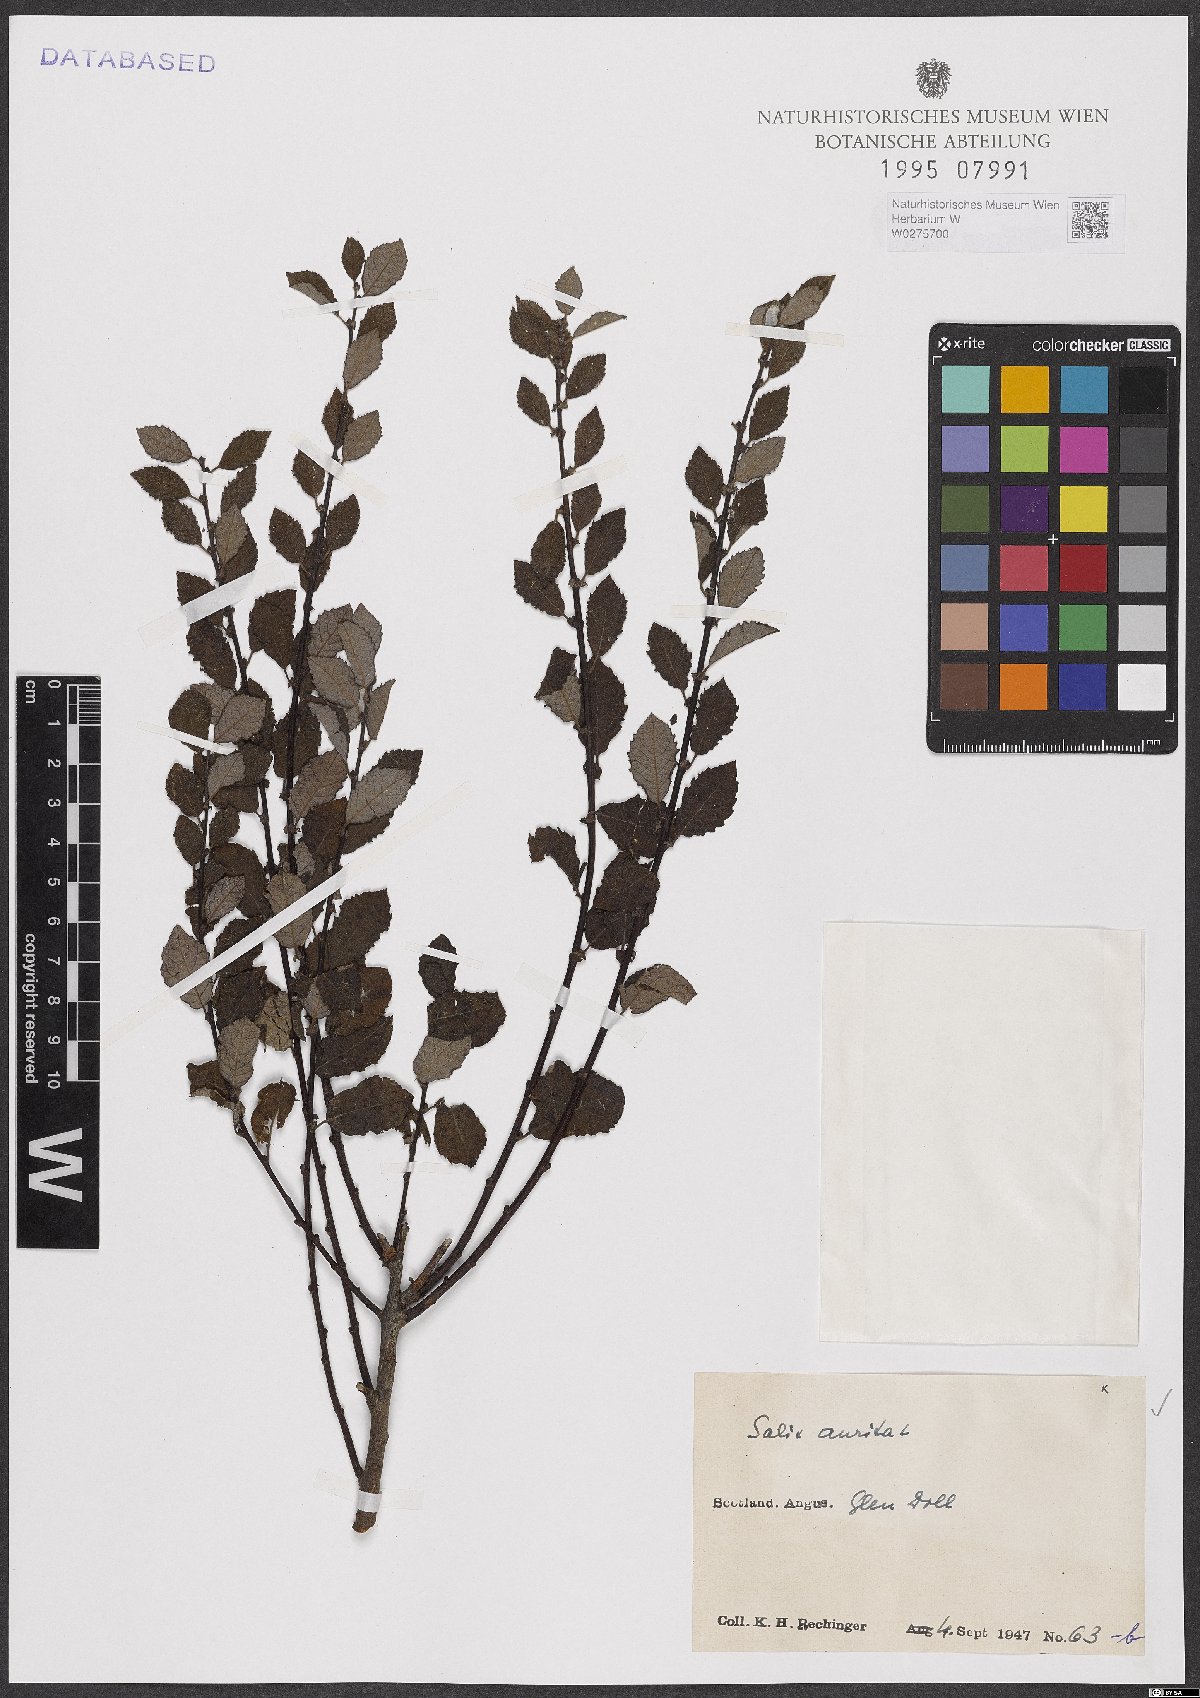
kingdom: Plantae
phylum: Tracheophyta
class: Magnoliopsida
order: Malpighiales
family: Salicaceae
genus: Salix
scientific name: Salix aurita
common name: Eared willow
